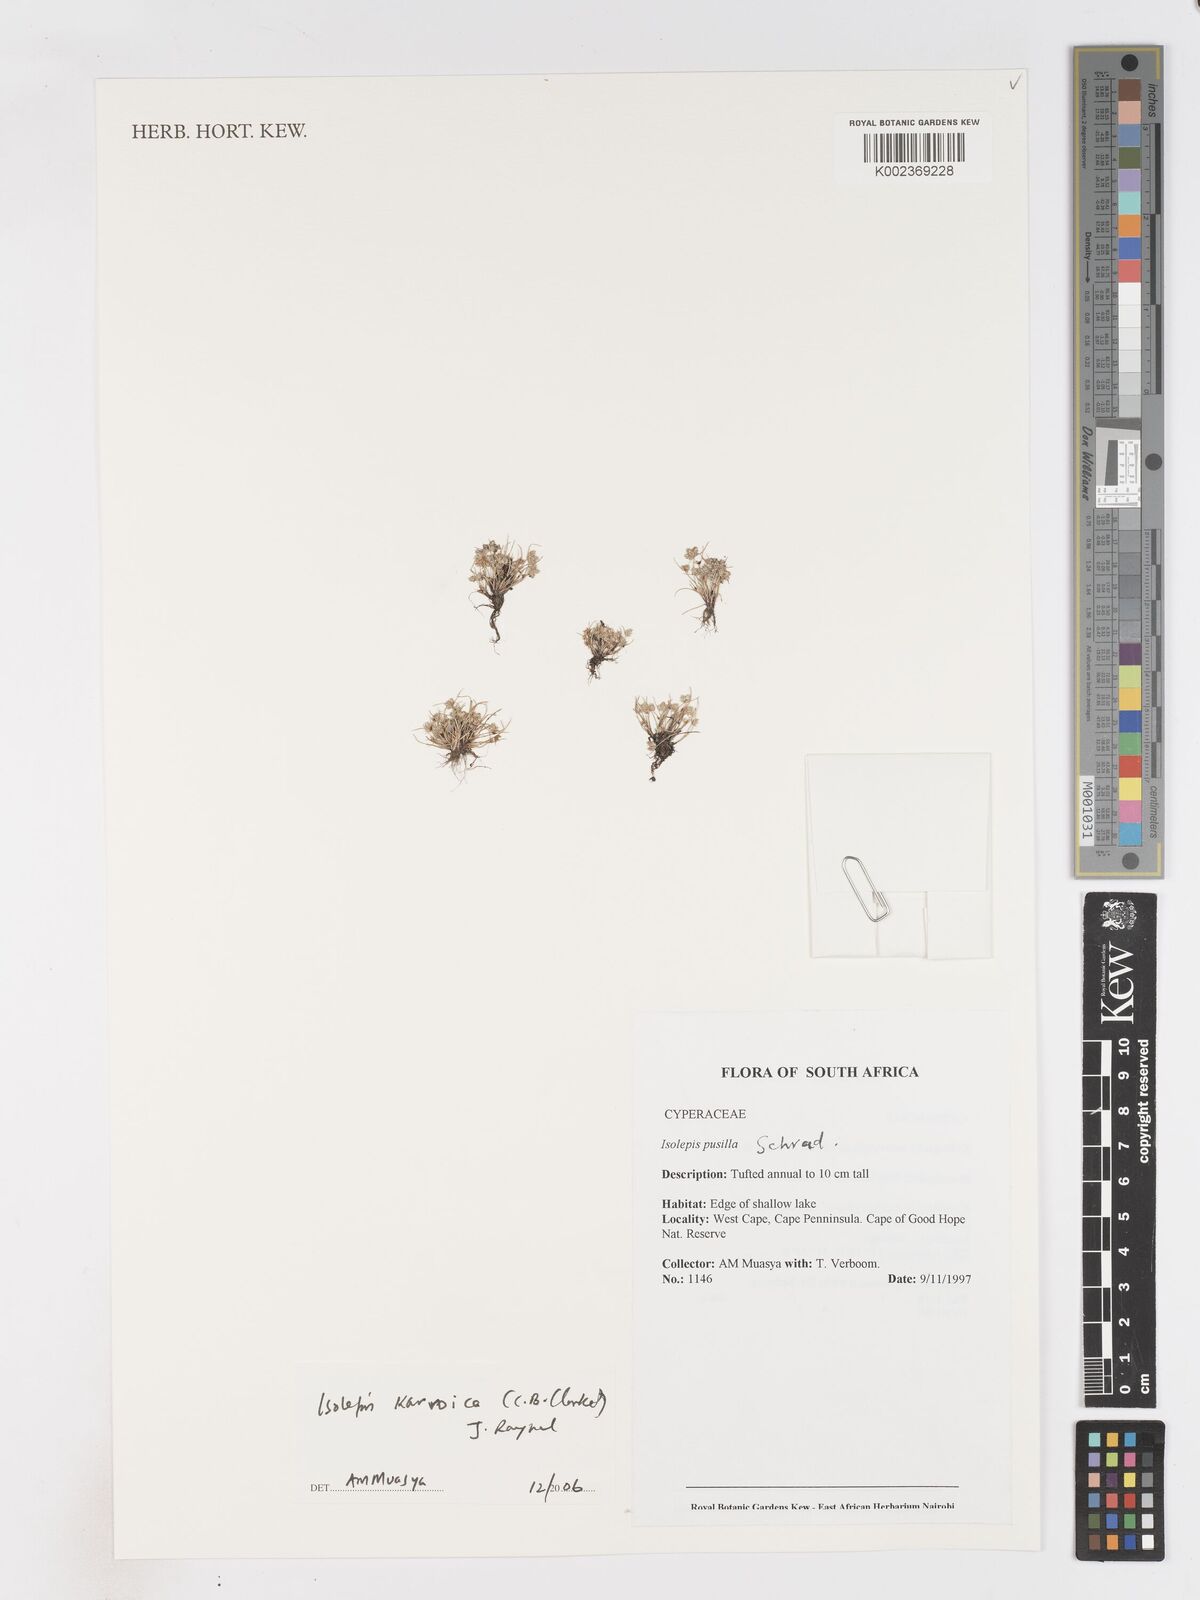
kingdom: Plantae
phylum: Tracheophyta
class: Liliopsida
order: Poales
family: Cyperaceae
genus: Isolepis
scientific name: Isolepis karroica
